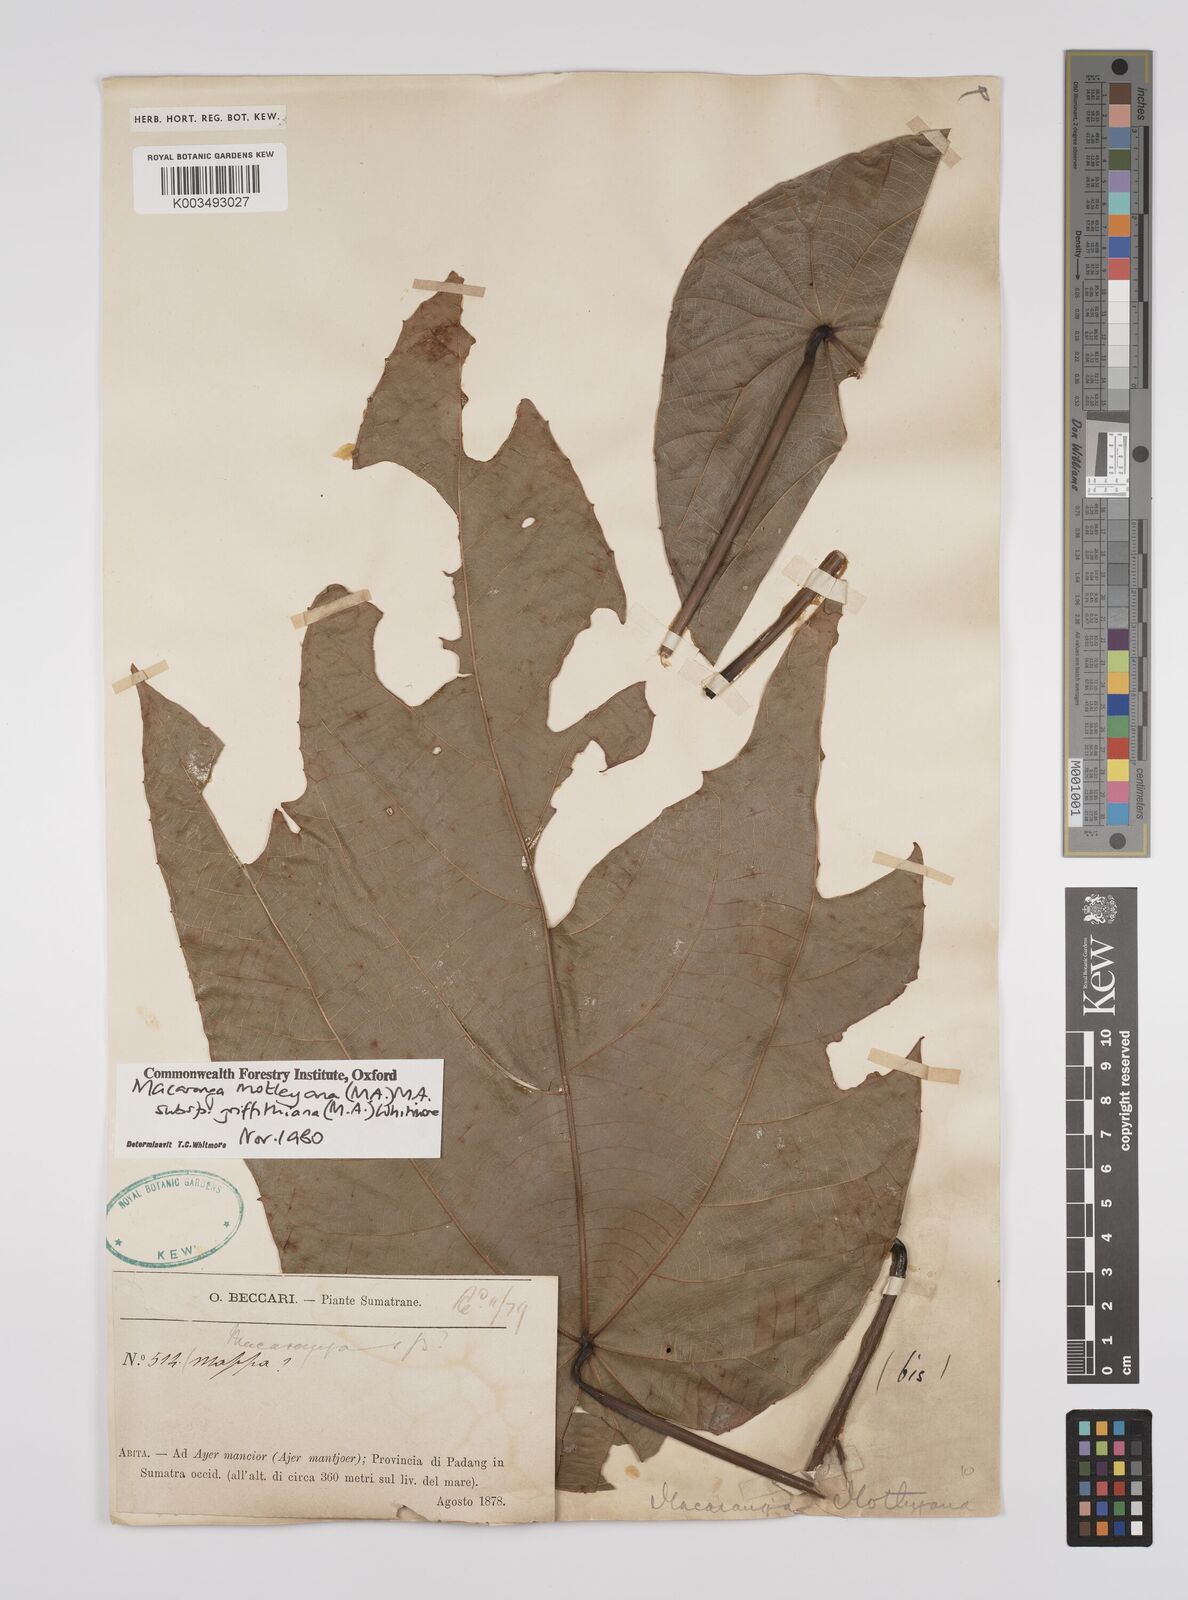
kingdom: Plantae
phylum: Tracheophyta
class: Magnoliopsida
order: Malpighiales
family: Euphorbiaceae
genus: Macaranga
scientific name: Macaranga griffithiana
